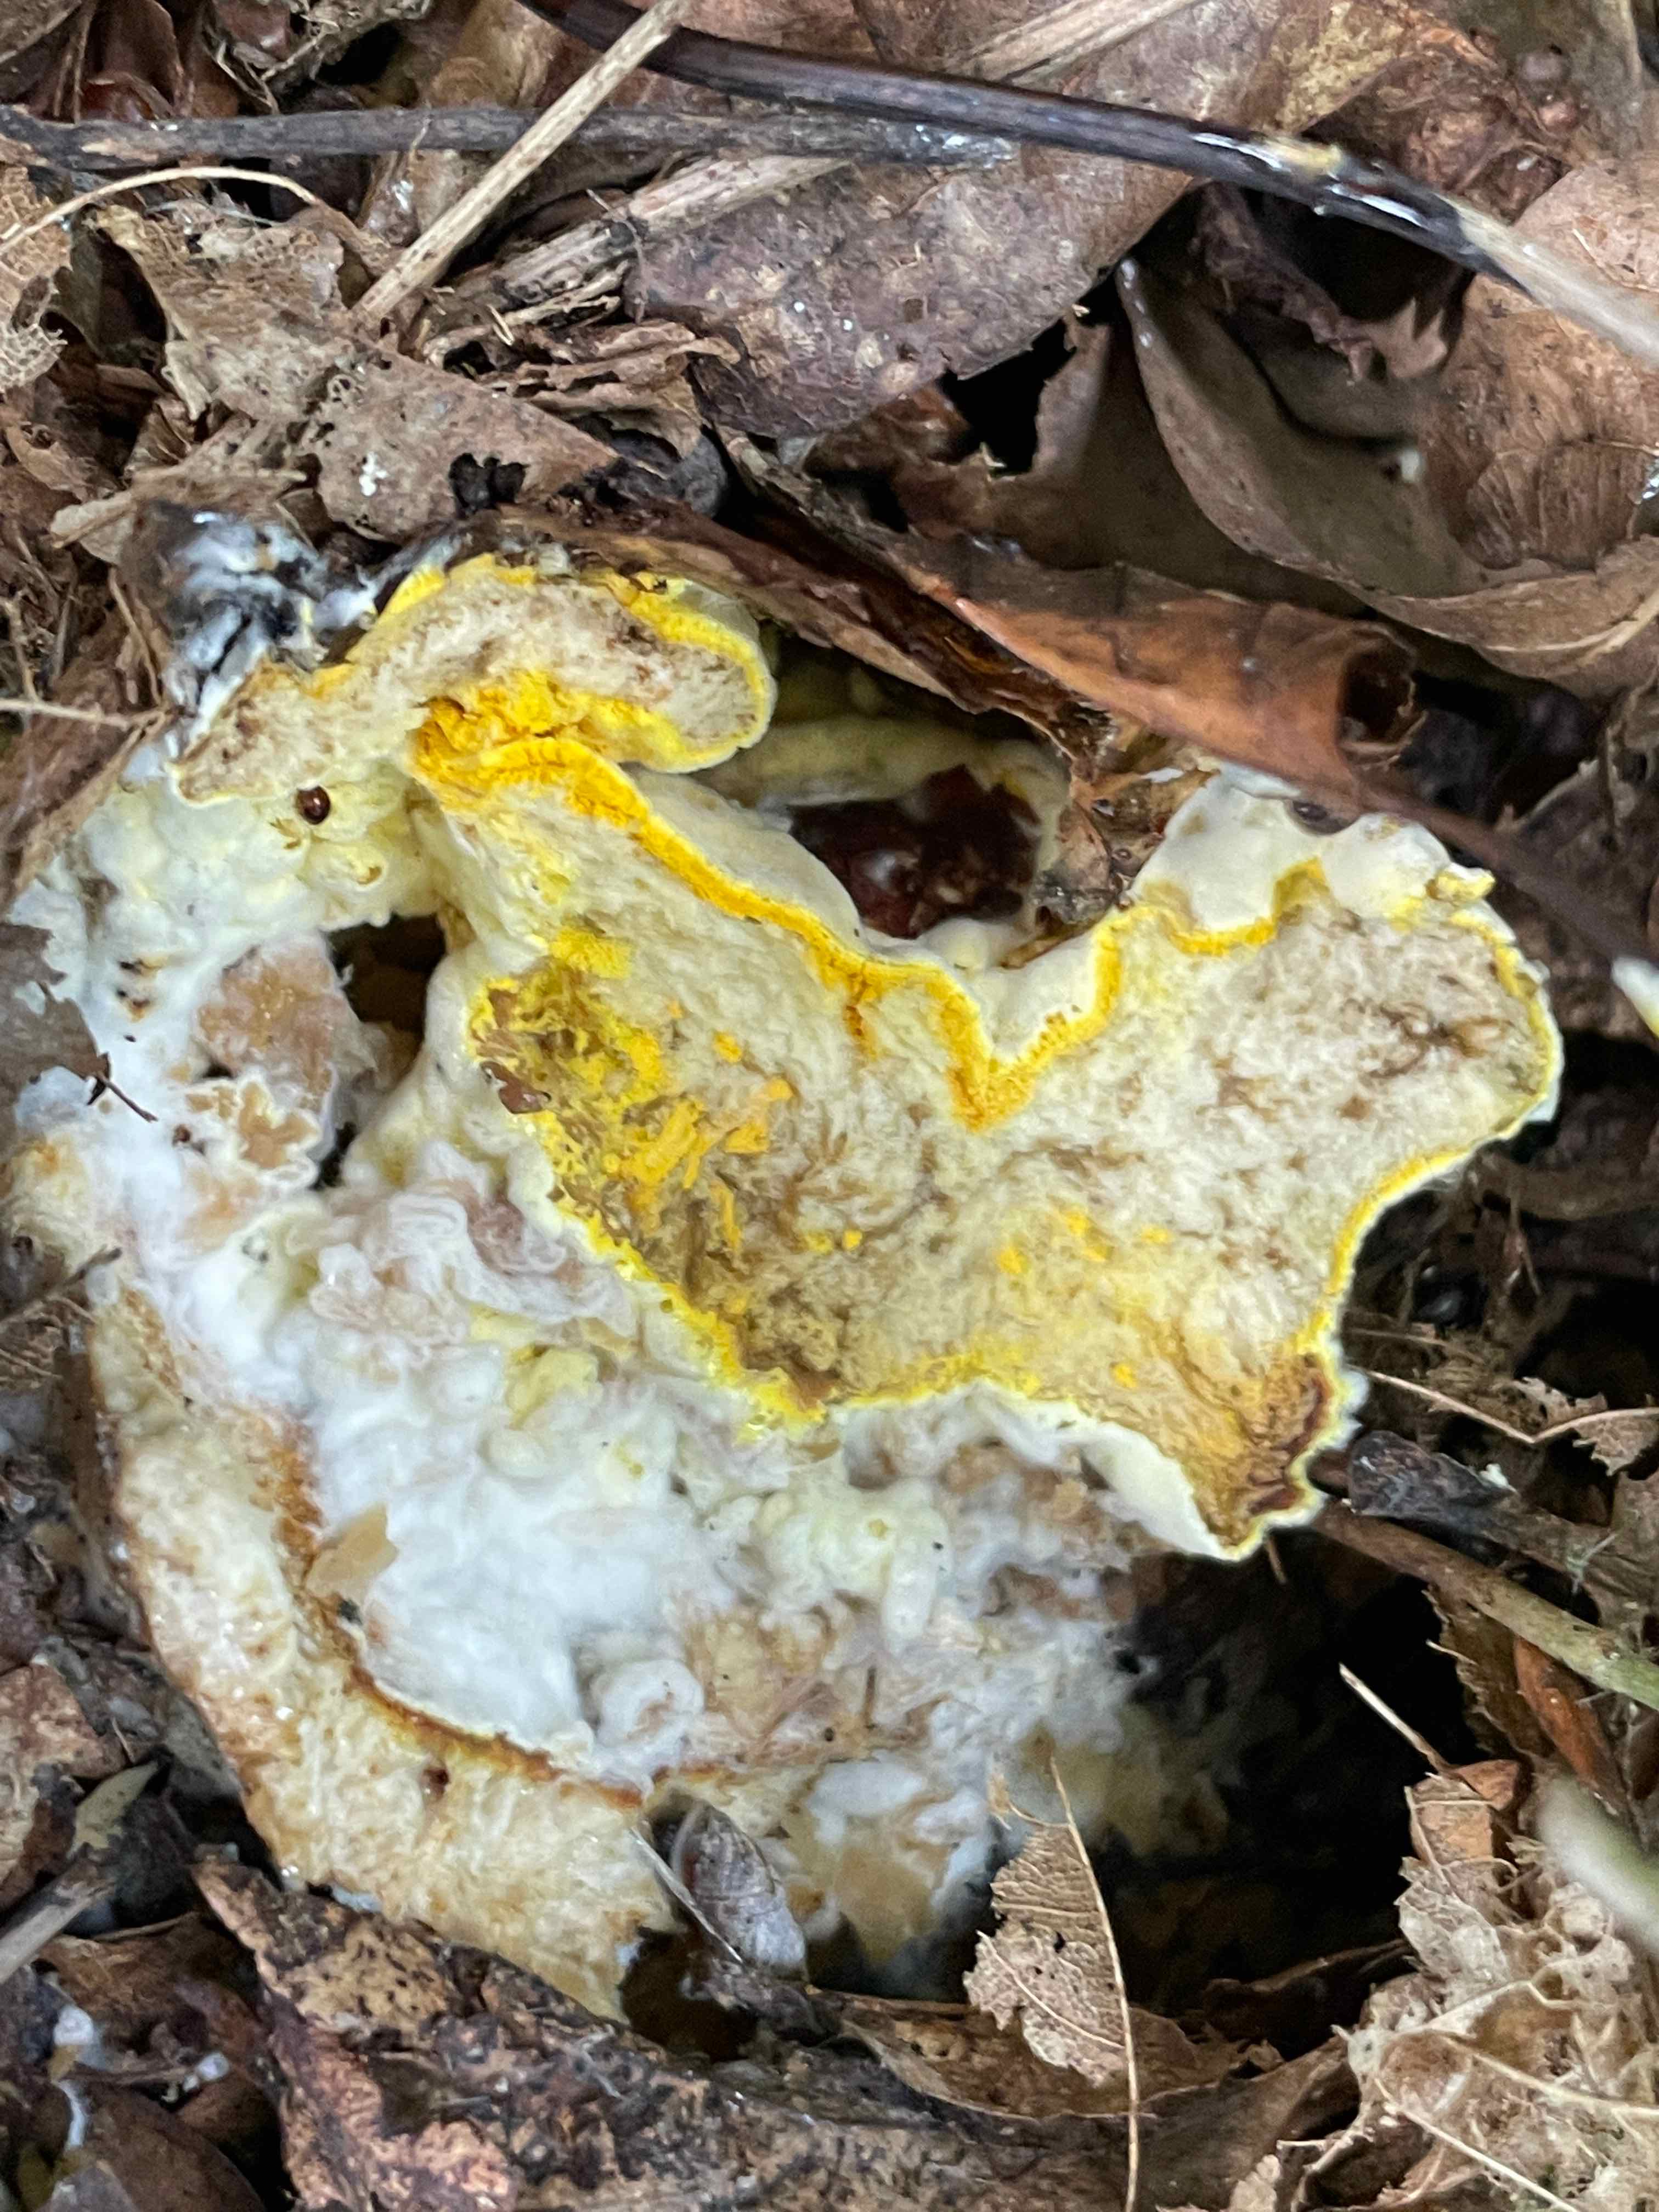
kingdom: Fungi
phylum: Ascomycota
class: Sordariomycetes
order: Hypocreales
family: Hypocreaceae
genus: Hypomyces
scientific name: Hypomyces chrysospermus
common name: gulskimmel-snylteskorpe
